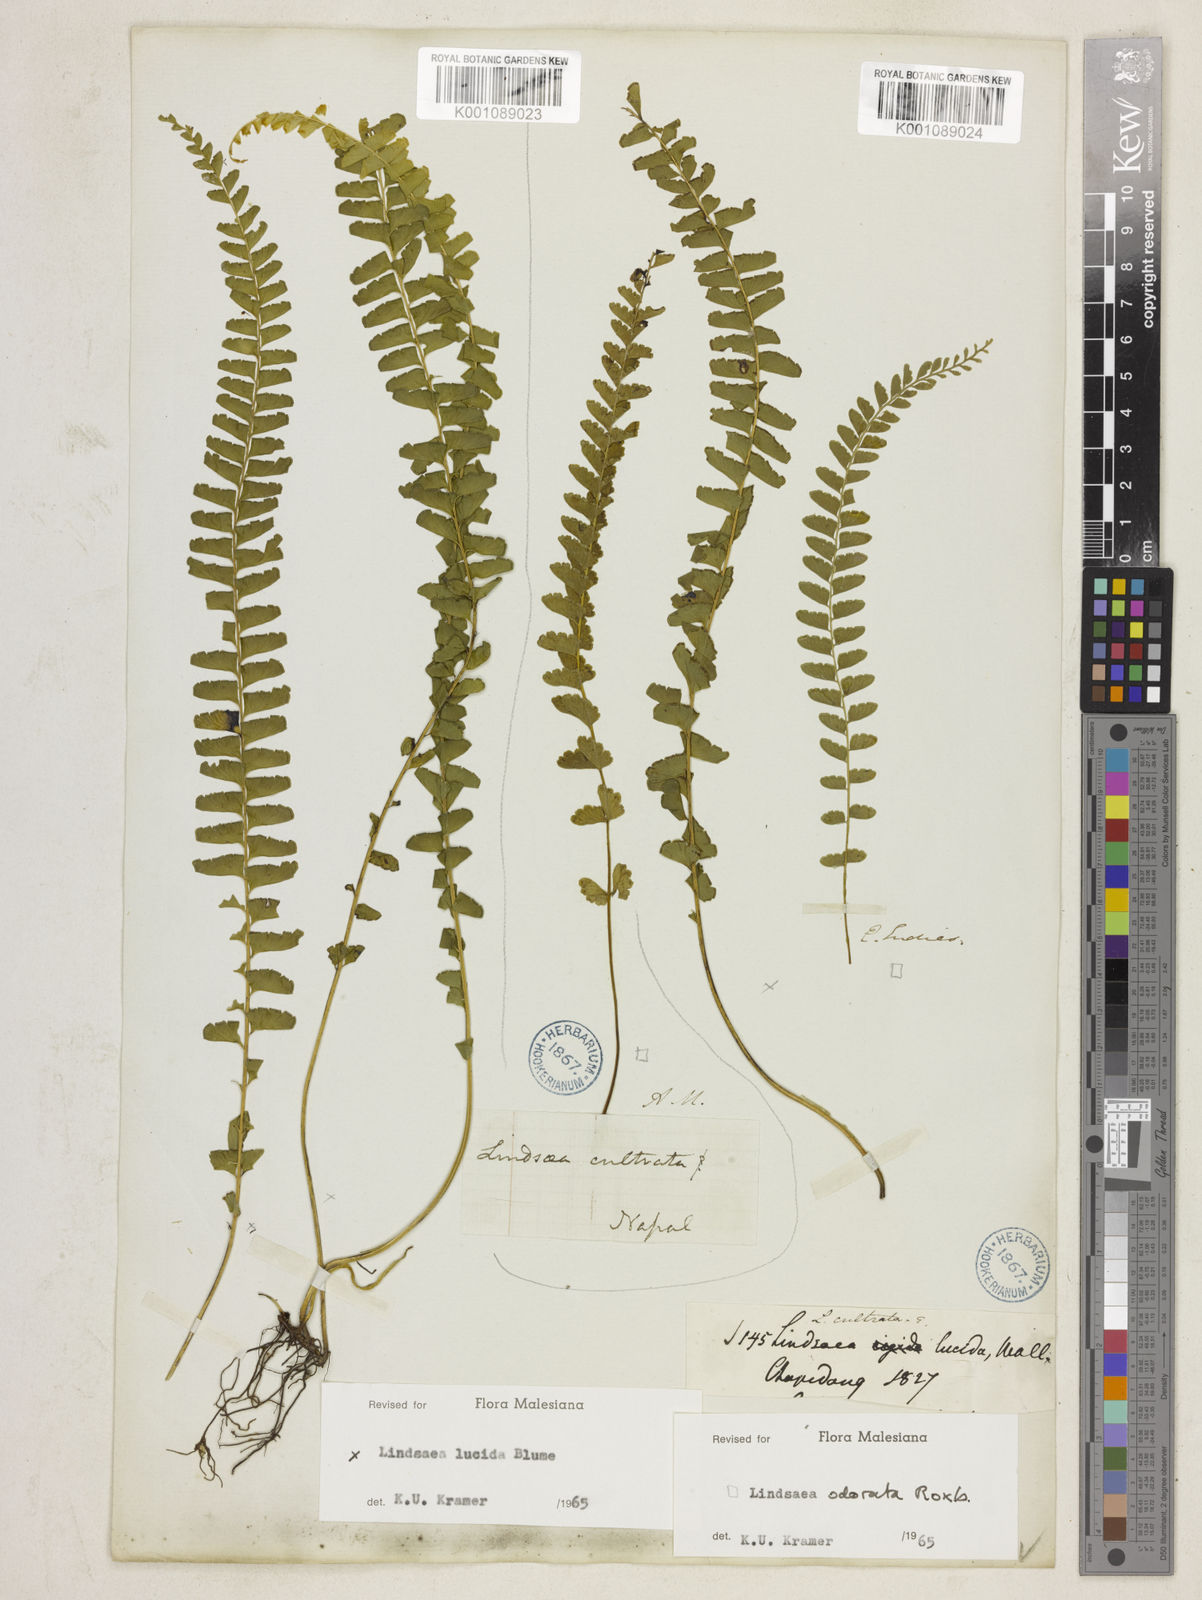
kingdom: Plantae
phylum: Tracheophyta
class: Polypodiopsida
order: Polypodiales
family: Lindsaeaceae
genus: Lindsaea
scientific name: Lindsaea lucida
